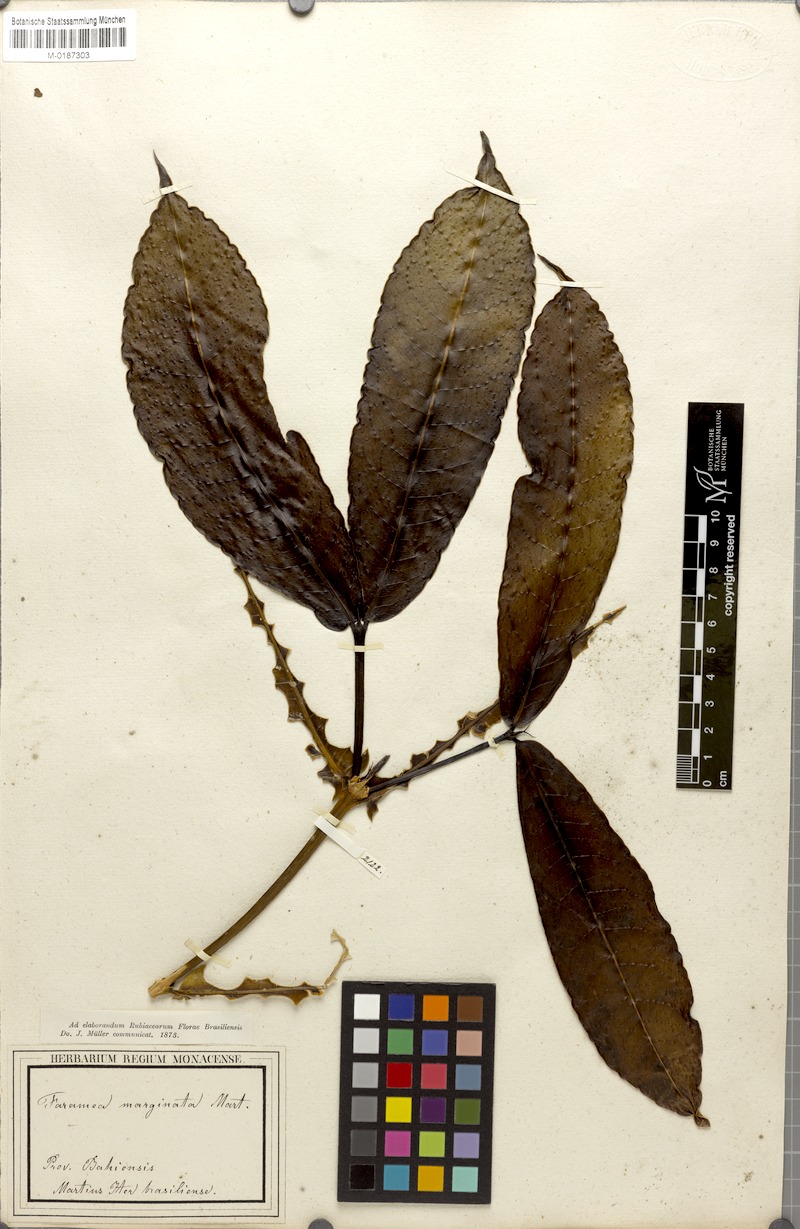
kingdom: Plantae
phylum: Tracheophyta
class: Magnoliopsida
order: Gentianales
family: Rubiaceae
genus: Faramea
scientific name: Faramea martiana
